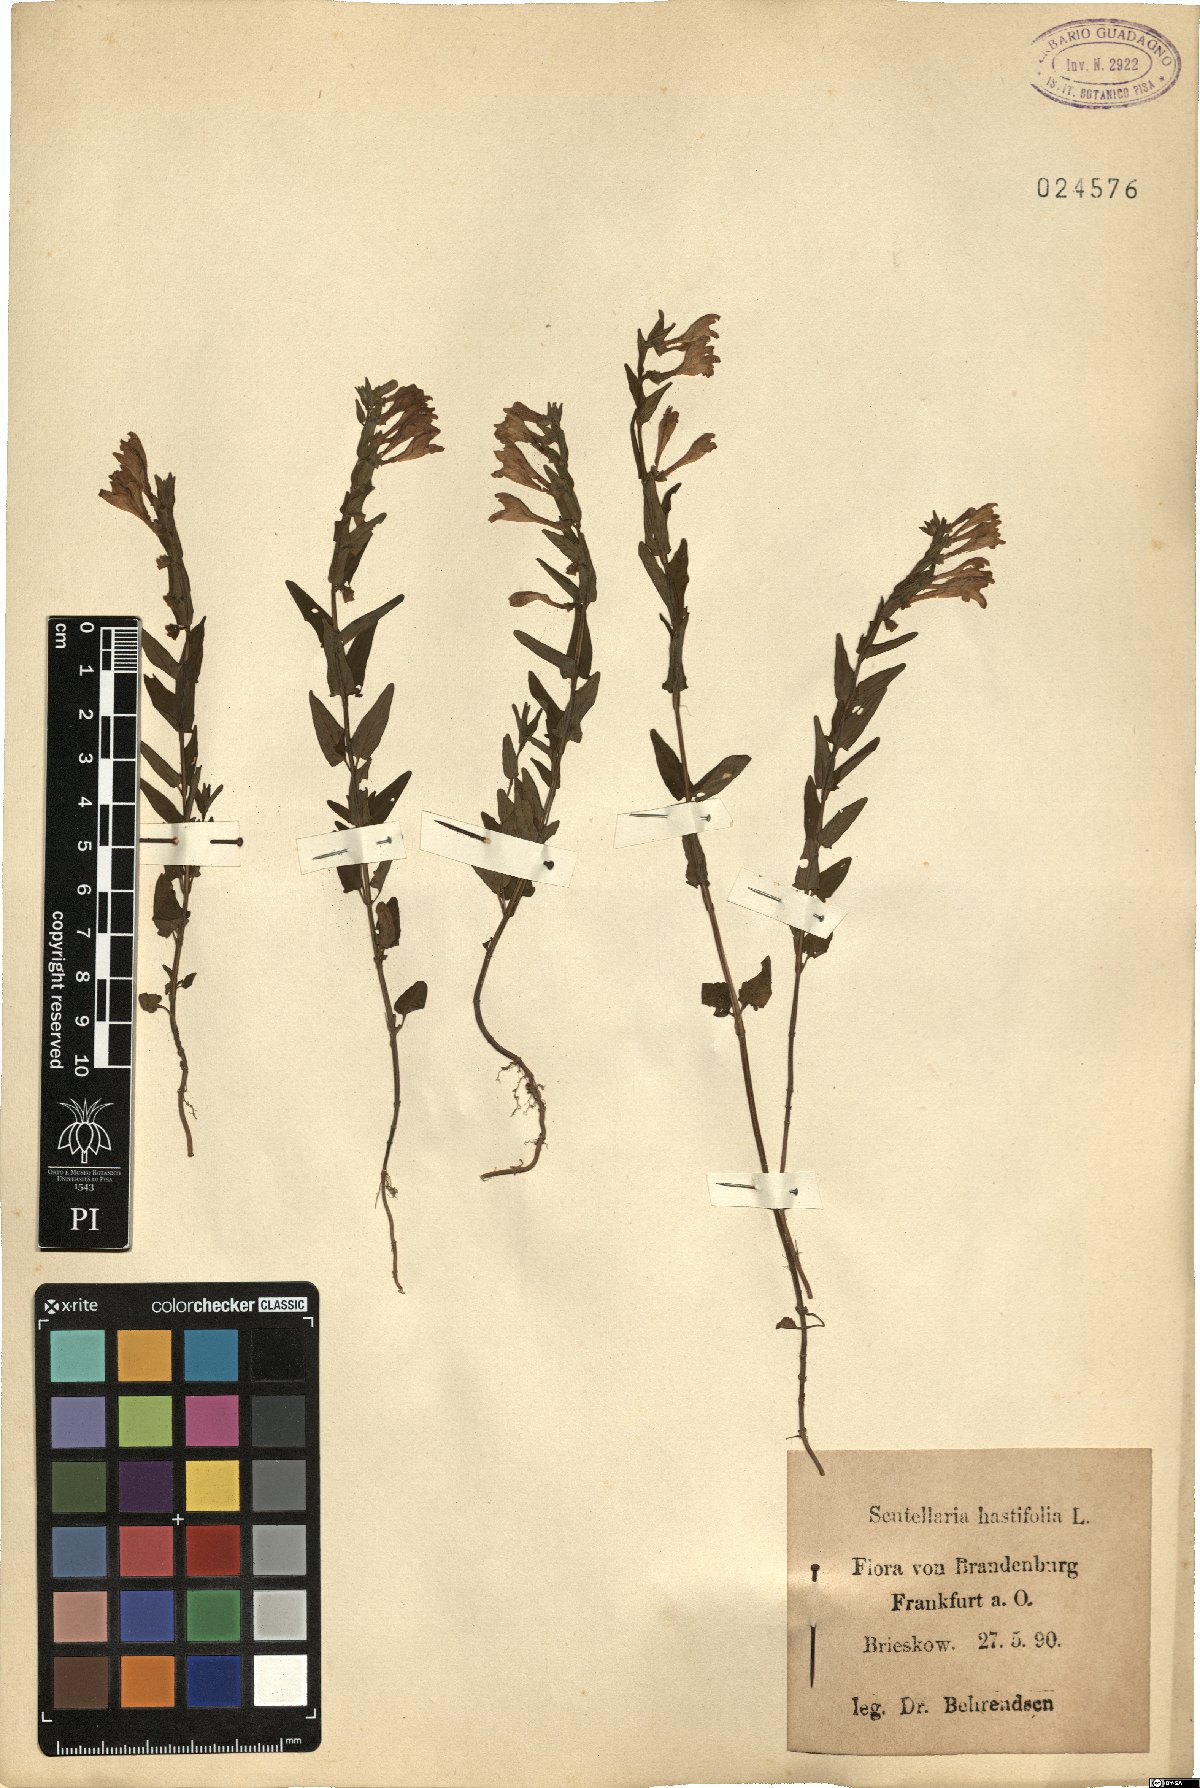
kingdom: Plantae
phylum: Tracheophyta
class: Magnoliopsida
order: Lamiales
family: Lamiaceae
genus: Scutellaria
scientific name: Scutellaria hastifolia
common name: Norfolk skullcap
